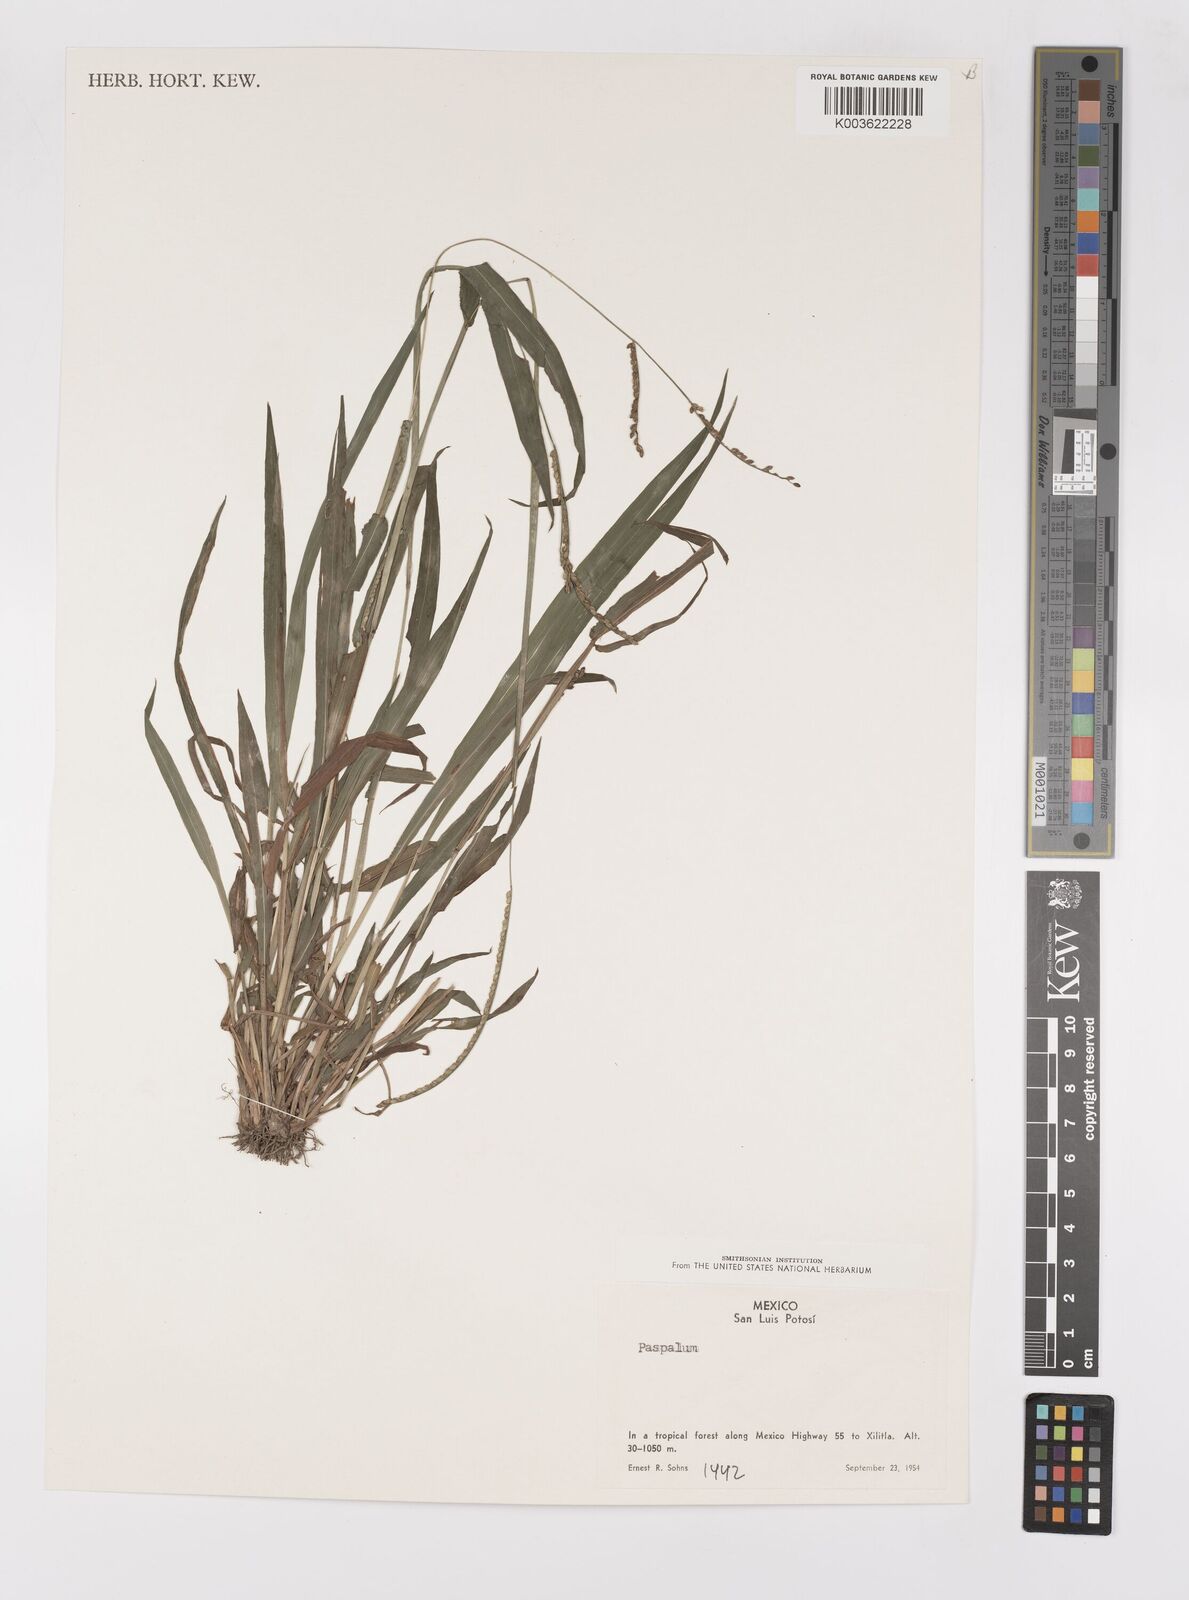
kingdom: Plantae
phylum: Tracheophyta
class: Liliopsida
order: Poales
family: Poaceae
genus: Paspalum
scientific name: Paspalum
